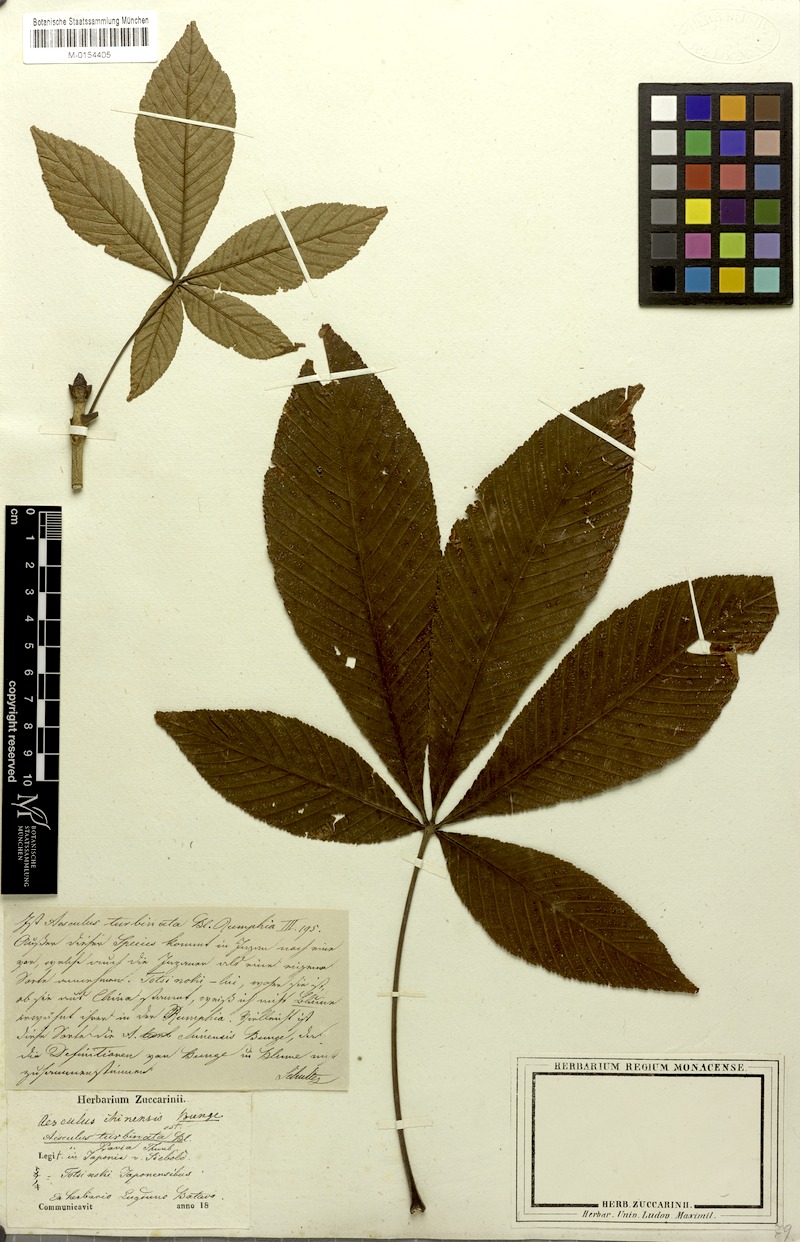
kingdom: Plantae
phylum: Tracheophyta
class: Magnoliopsida
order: Sapindales
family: Sapindaceae
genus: Aesculus
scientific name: Aesculus turbinata
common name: Japanese horse-chestnut
